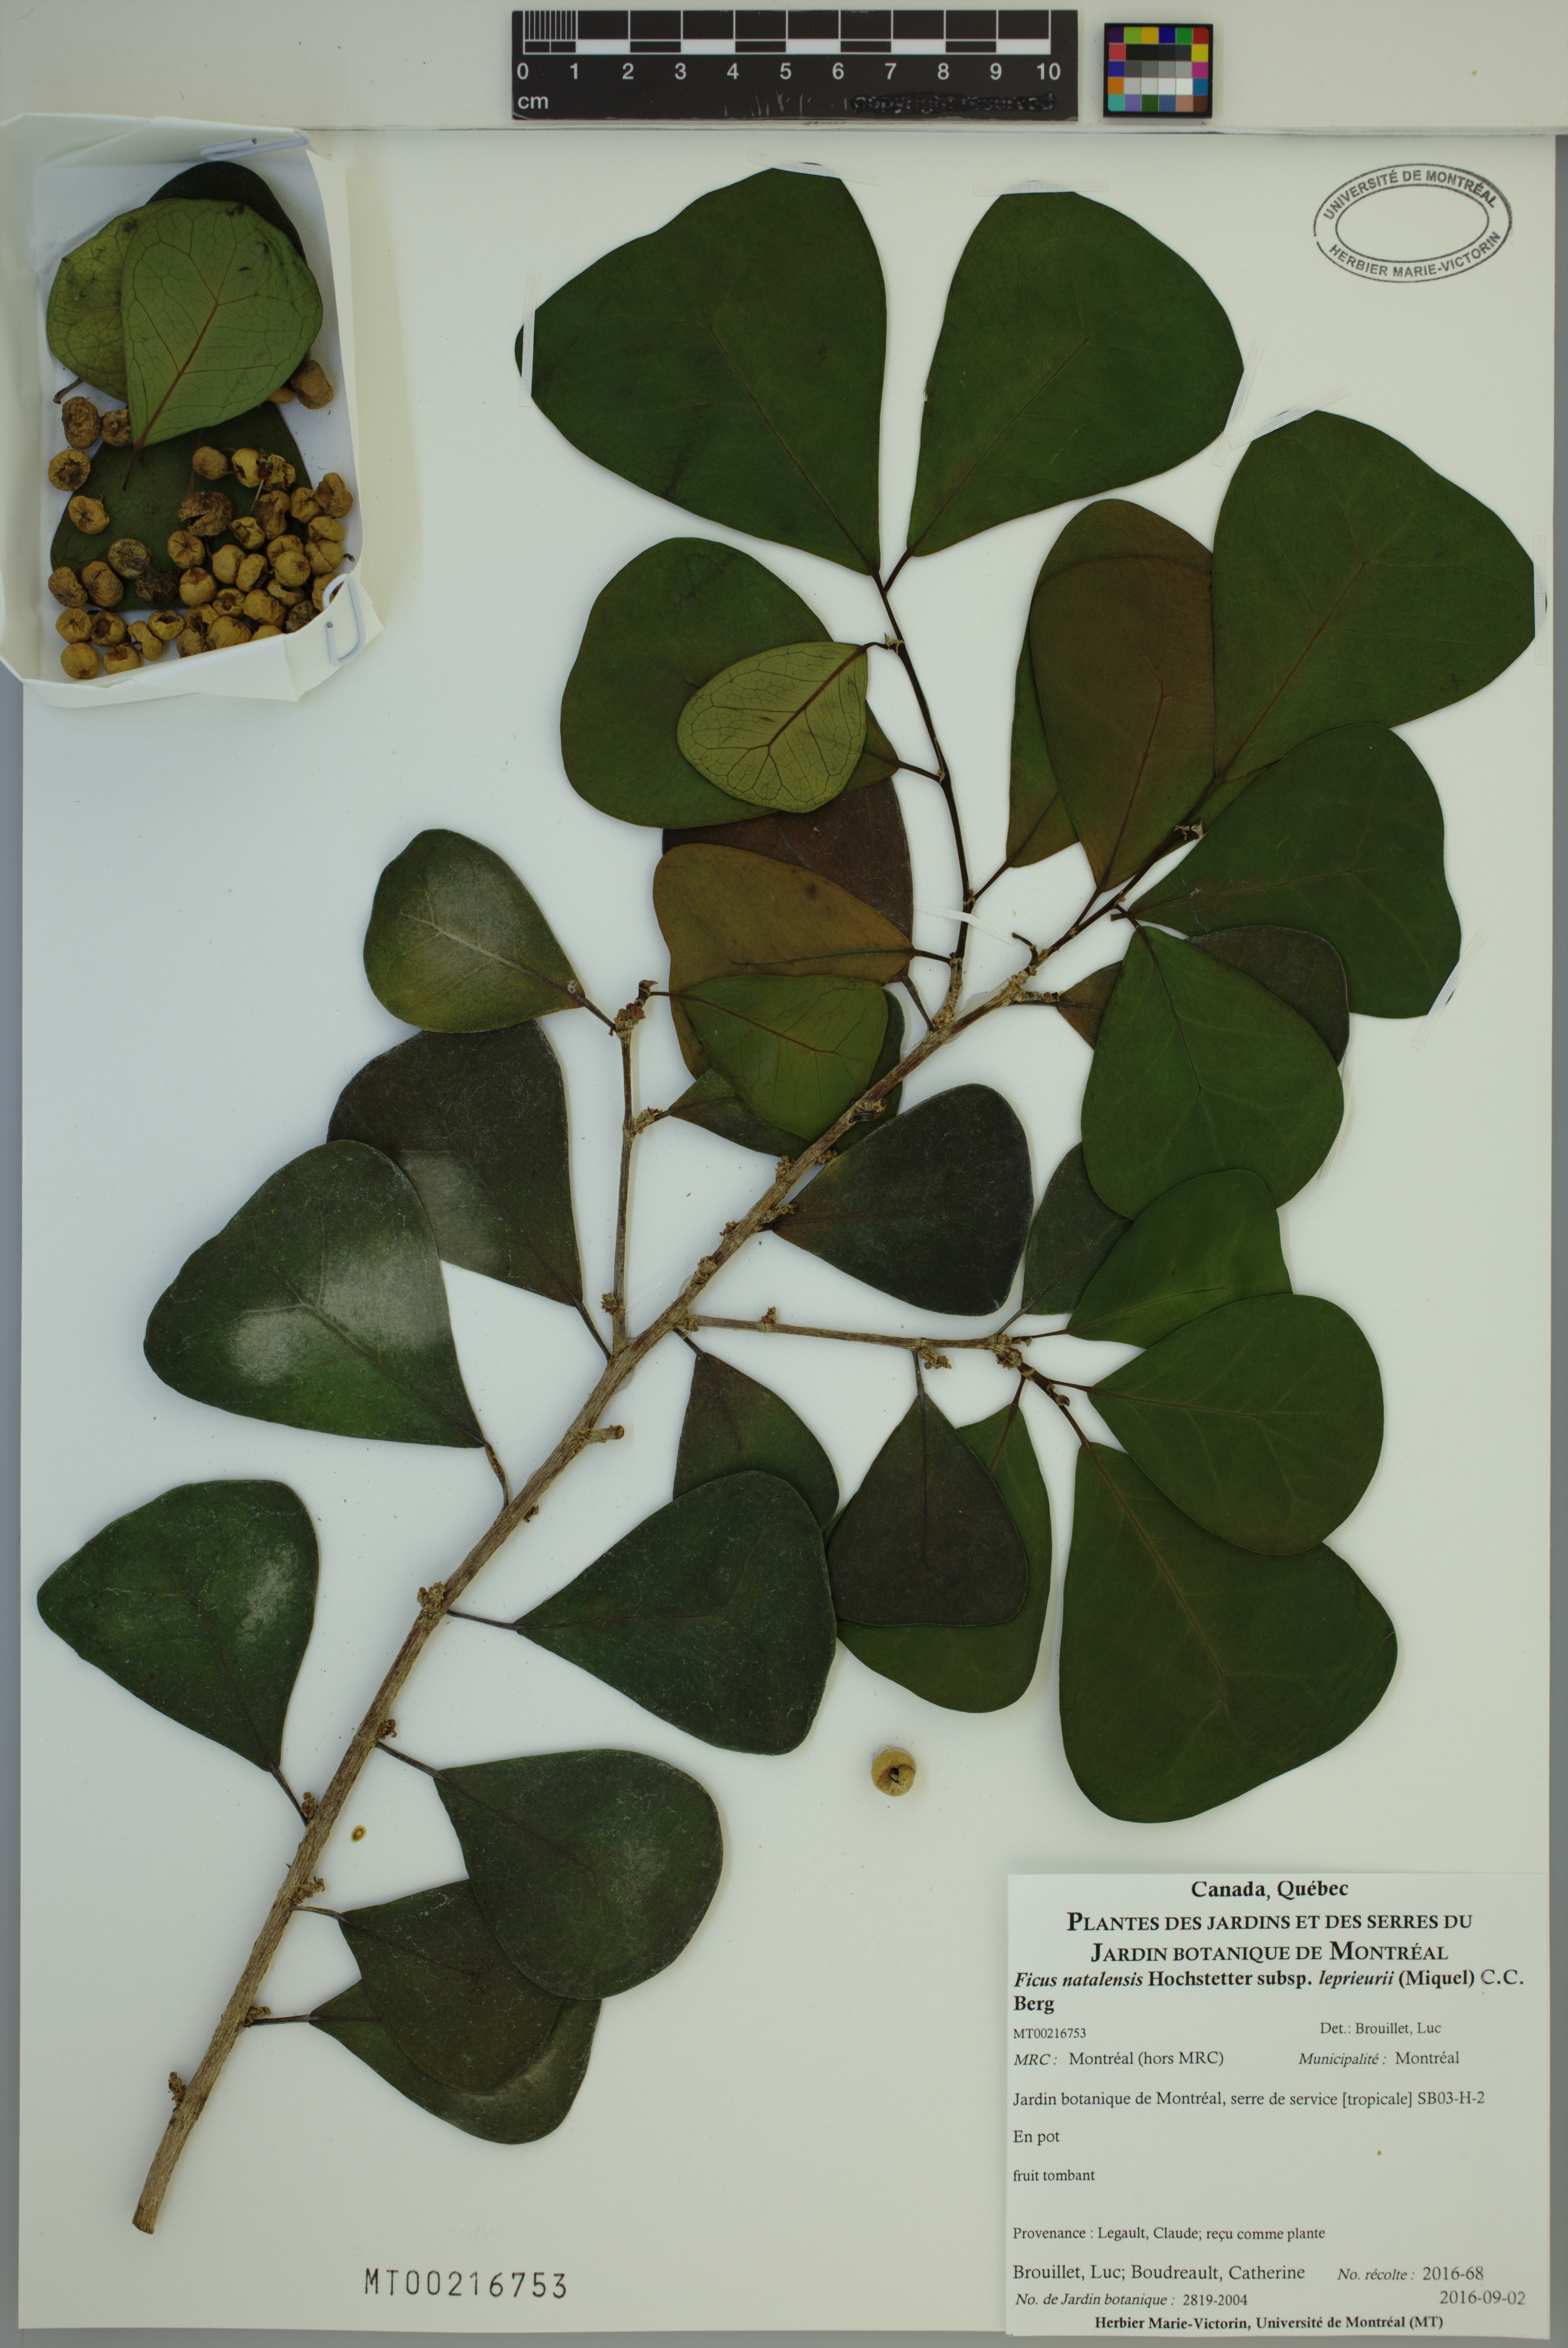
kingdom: Plantae
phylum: Tracheophyta
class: Magnoliopsida
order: Rosales
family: Moraceae
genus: Ficus
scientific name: Ficus natalensis
